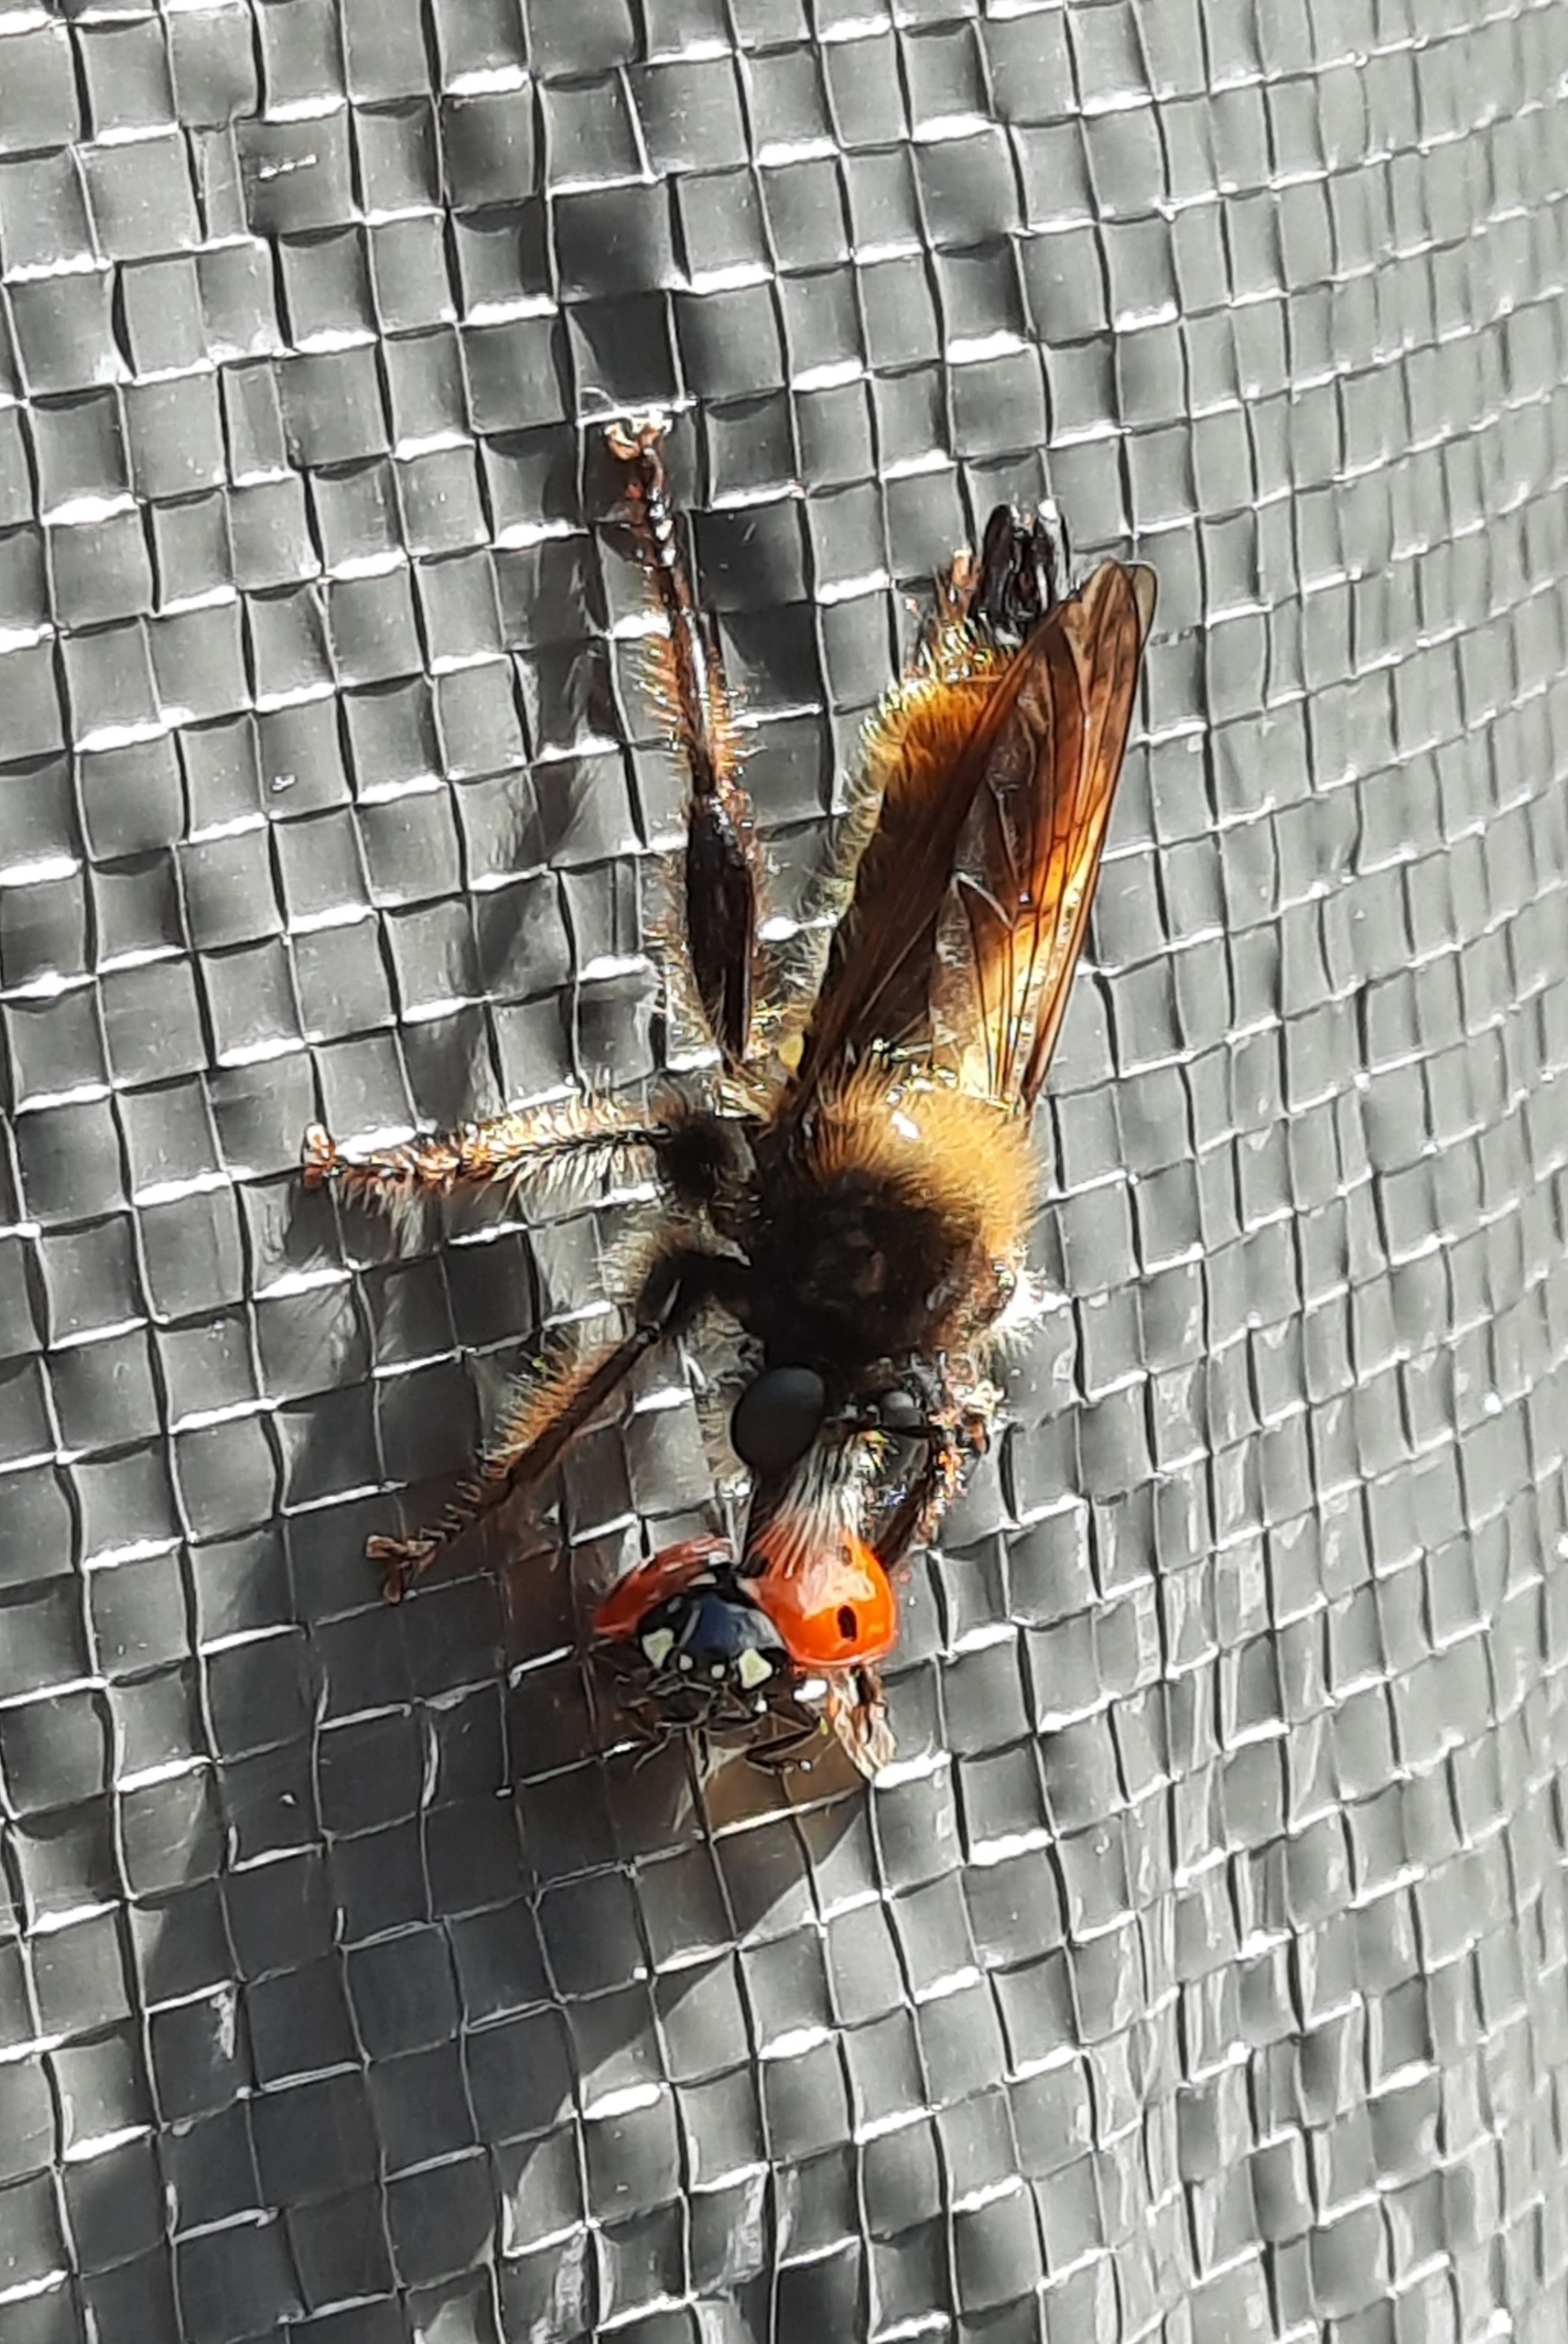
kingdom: Animalia
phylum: Arthropoda
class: Insecta
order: Diptera
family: Asilidae
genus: Laphria
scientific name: Laphria flava
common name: Gul vedrovflue
